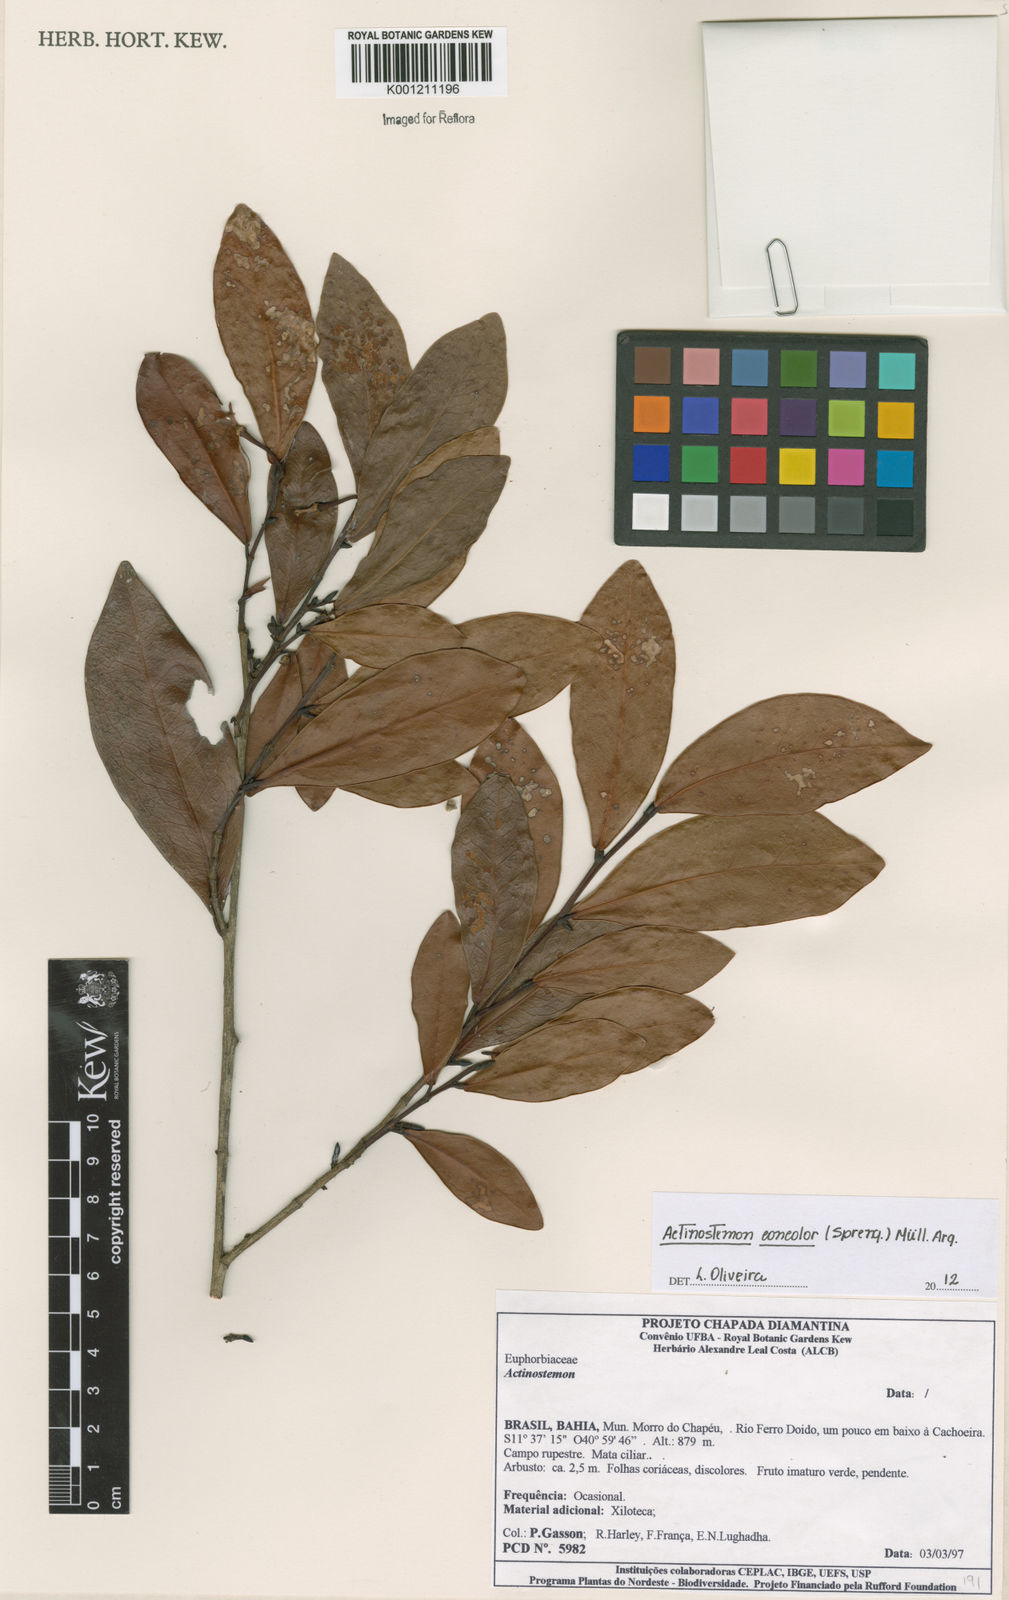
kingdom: Plantae
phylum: Tracheophyta
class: Magnoliopsida
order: Malpighiales
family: Euphorbiaceae
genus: Actinostemon
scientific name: Actinostemon
